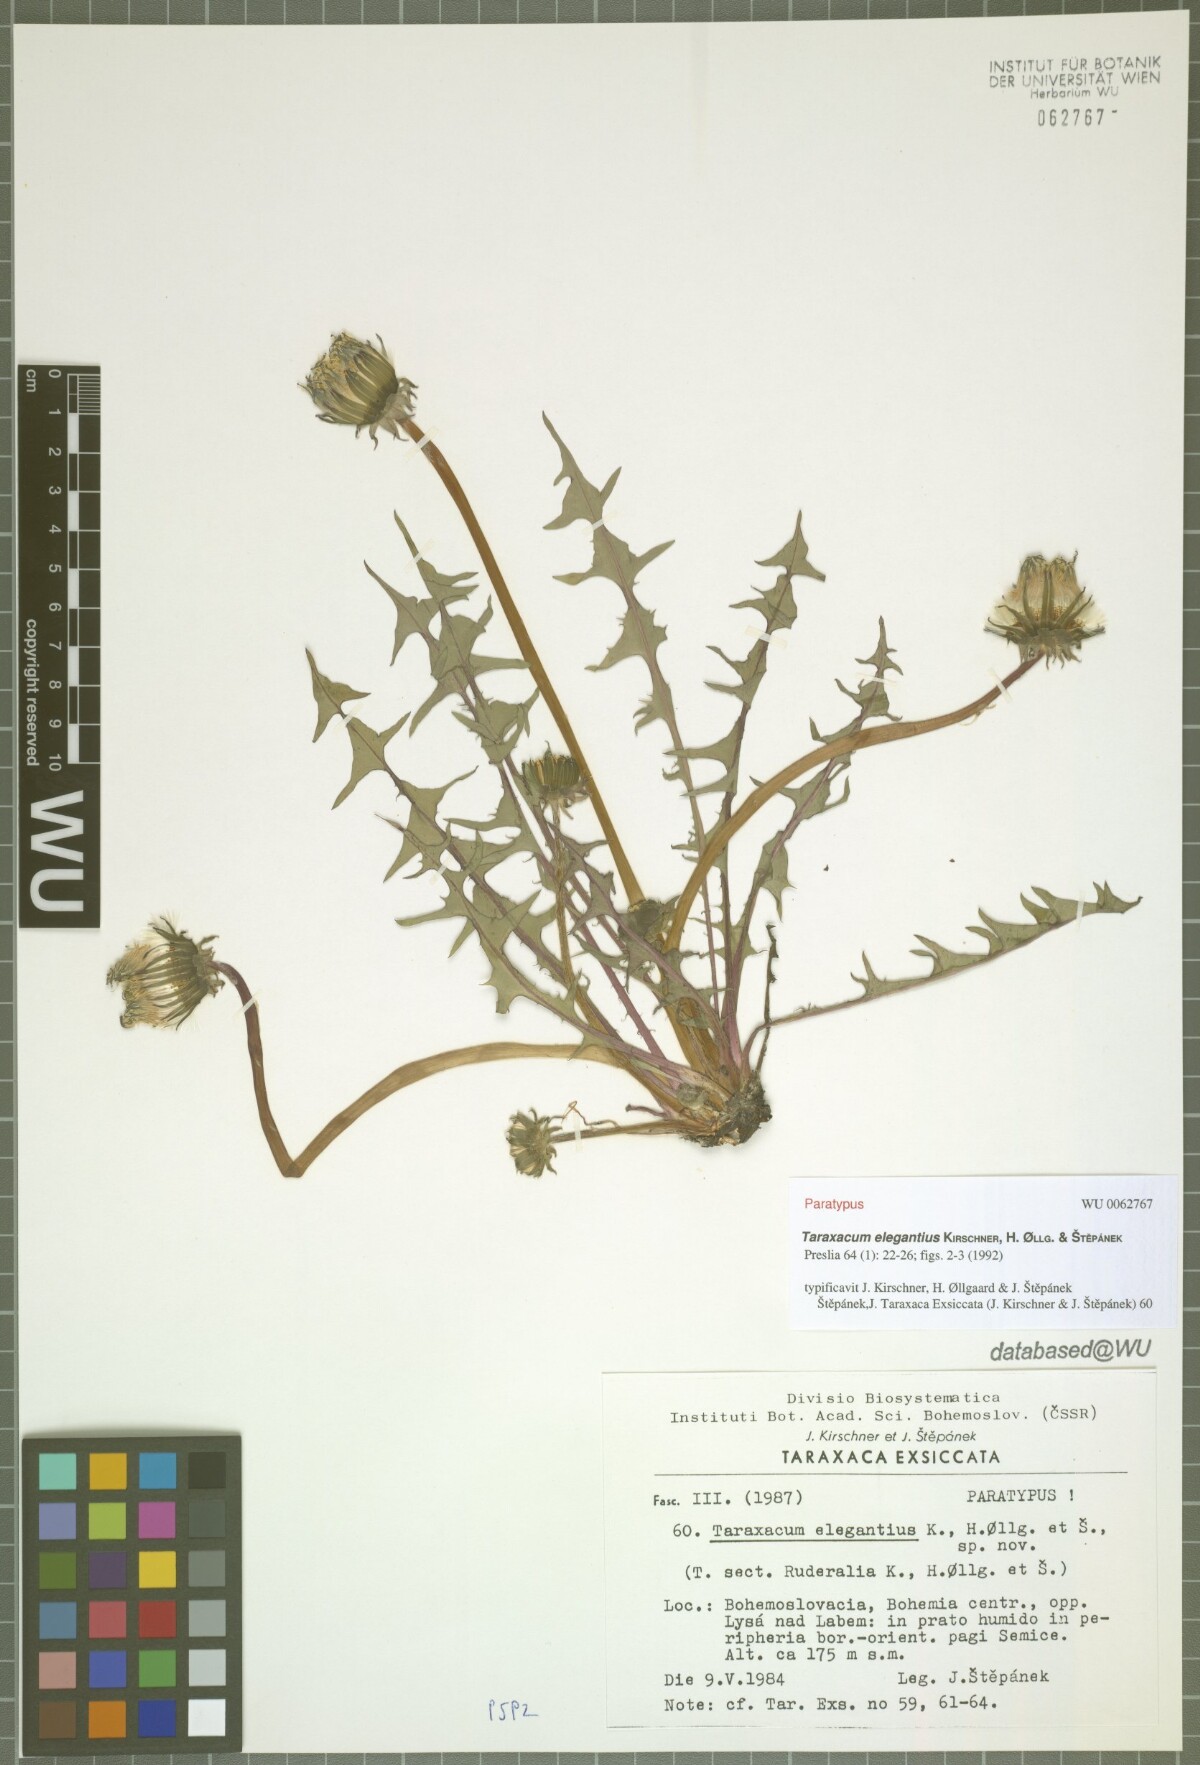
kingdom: Plantae
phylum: Tracheophyta
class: Magnoliopsida
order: Asterales
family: Asteraceae
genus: Taraxacum
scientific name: Taraxacum elegantius
